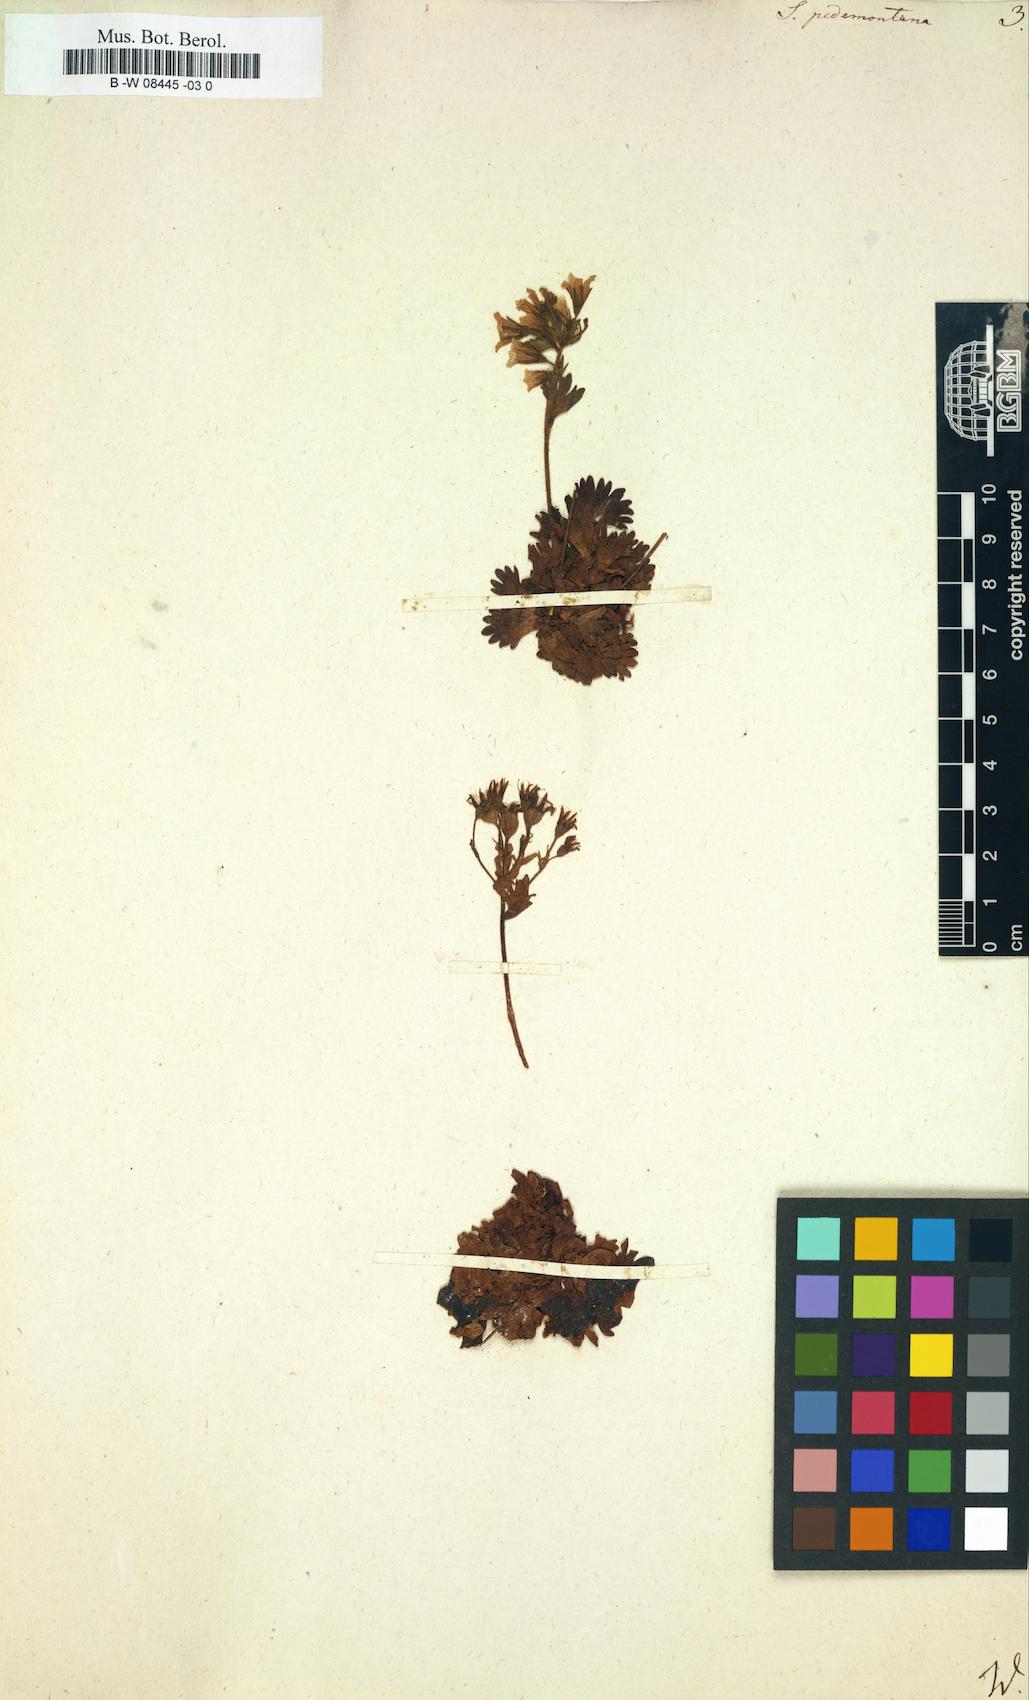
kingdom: Plantae
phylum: Tracheophyta
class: Magnoliopsida
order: Saxifragales
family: Saxifragaceae
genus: Saxifraga
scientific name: Saxifraga pedemontana
